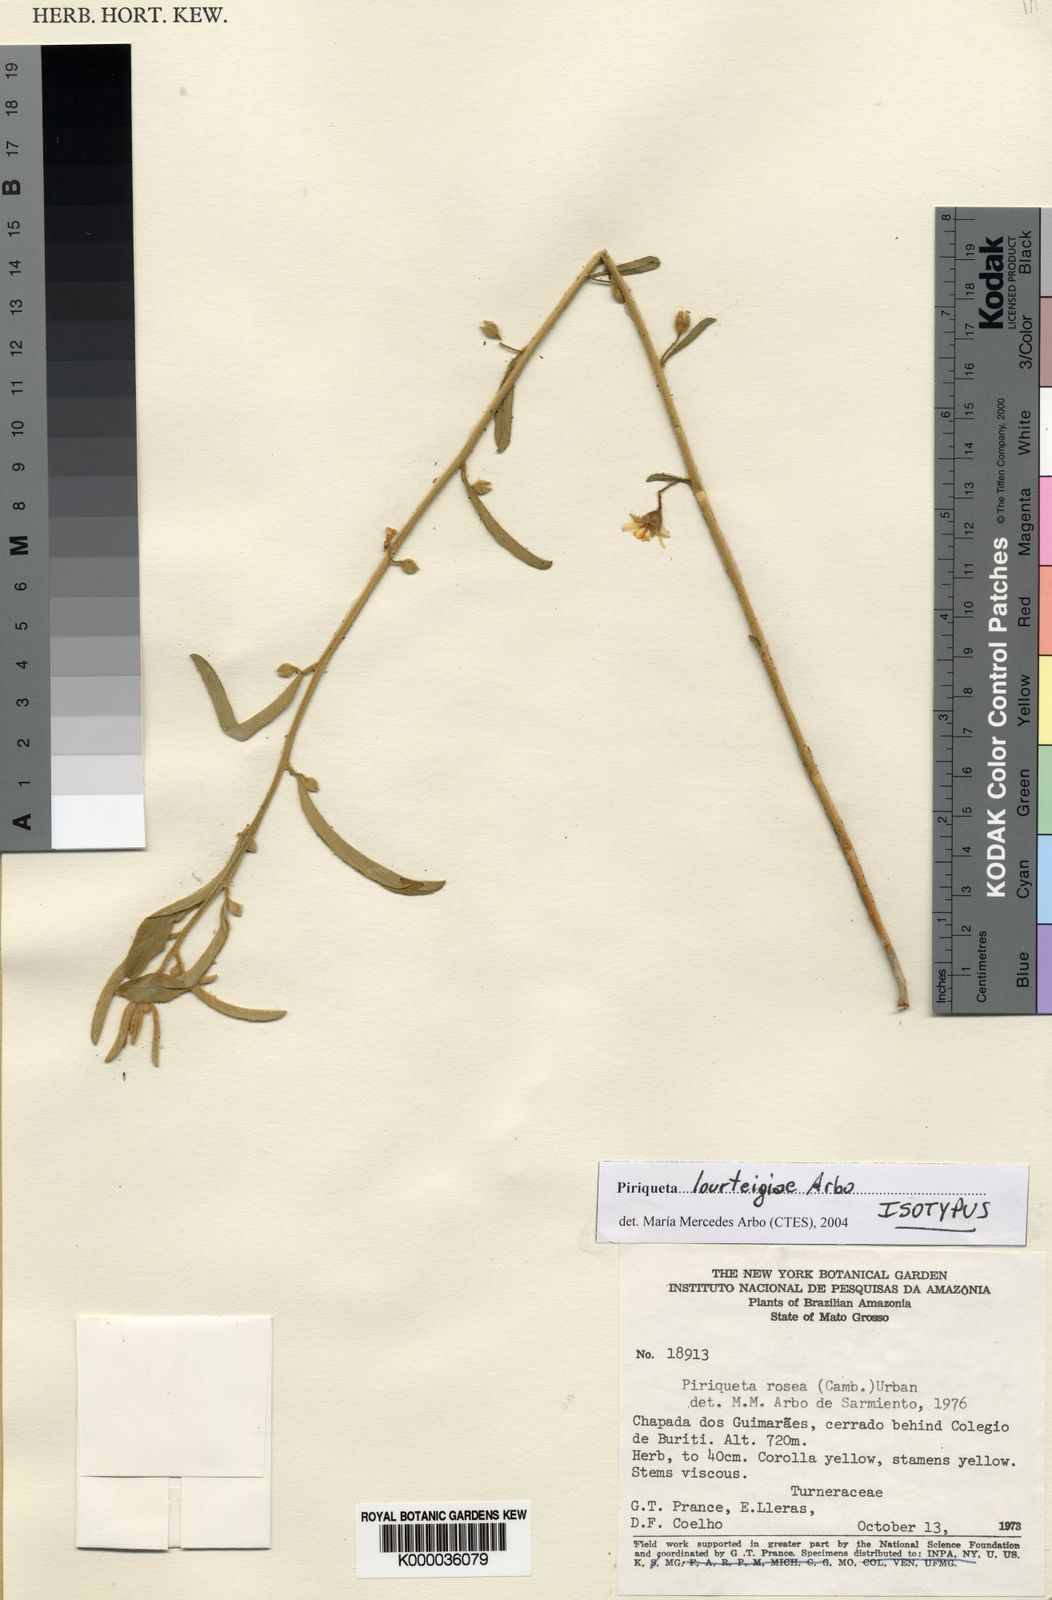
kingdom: Plantae
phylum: Tracheophyta
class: Magnoliopsida
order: Malpighiales
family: Turneraceae
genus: Piriqueta
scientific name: Piriqueta lourteigiae
